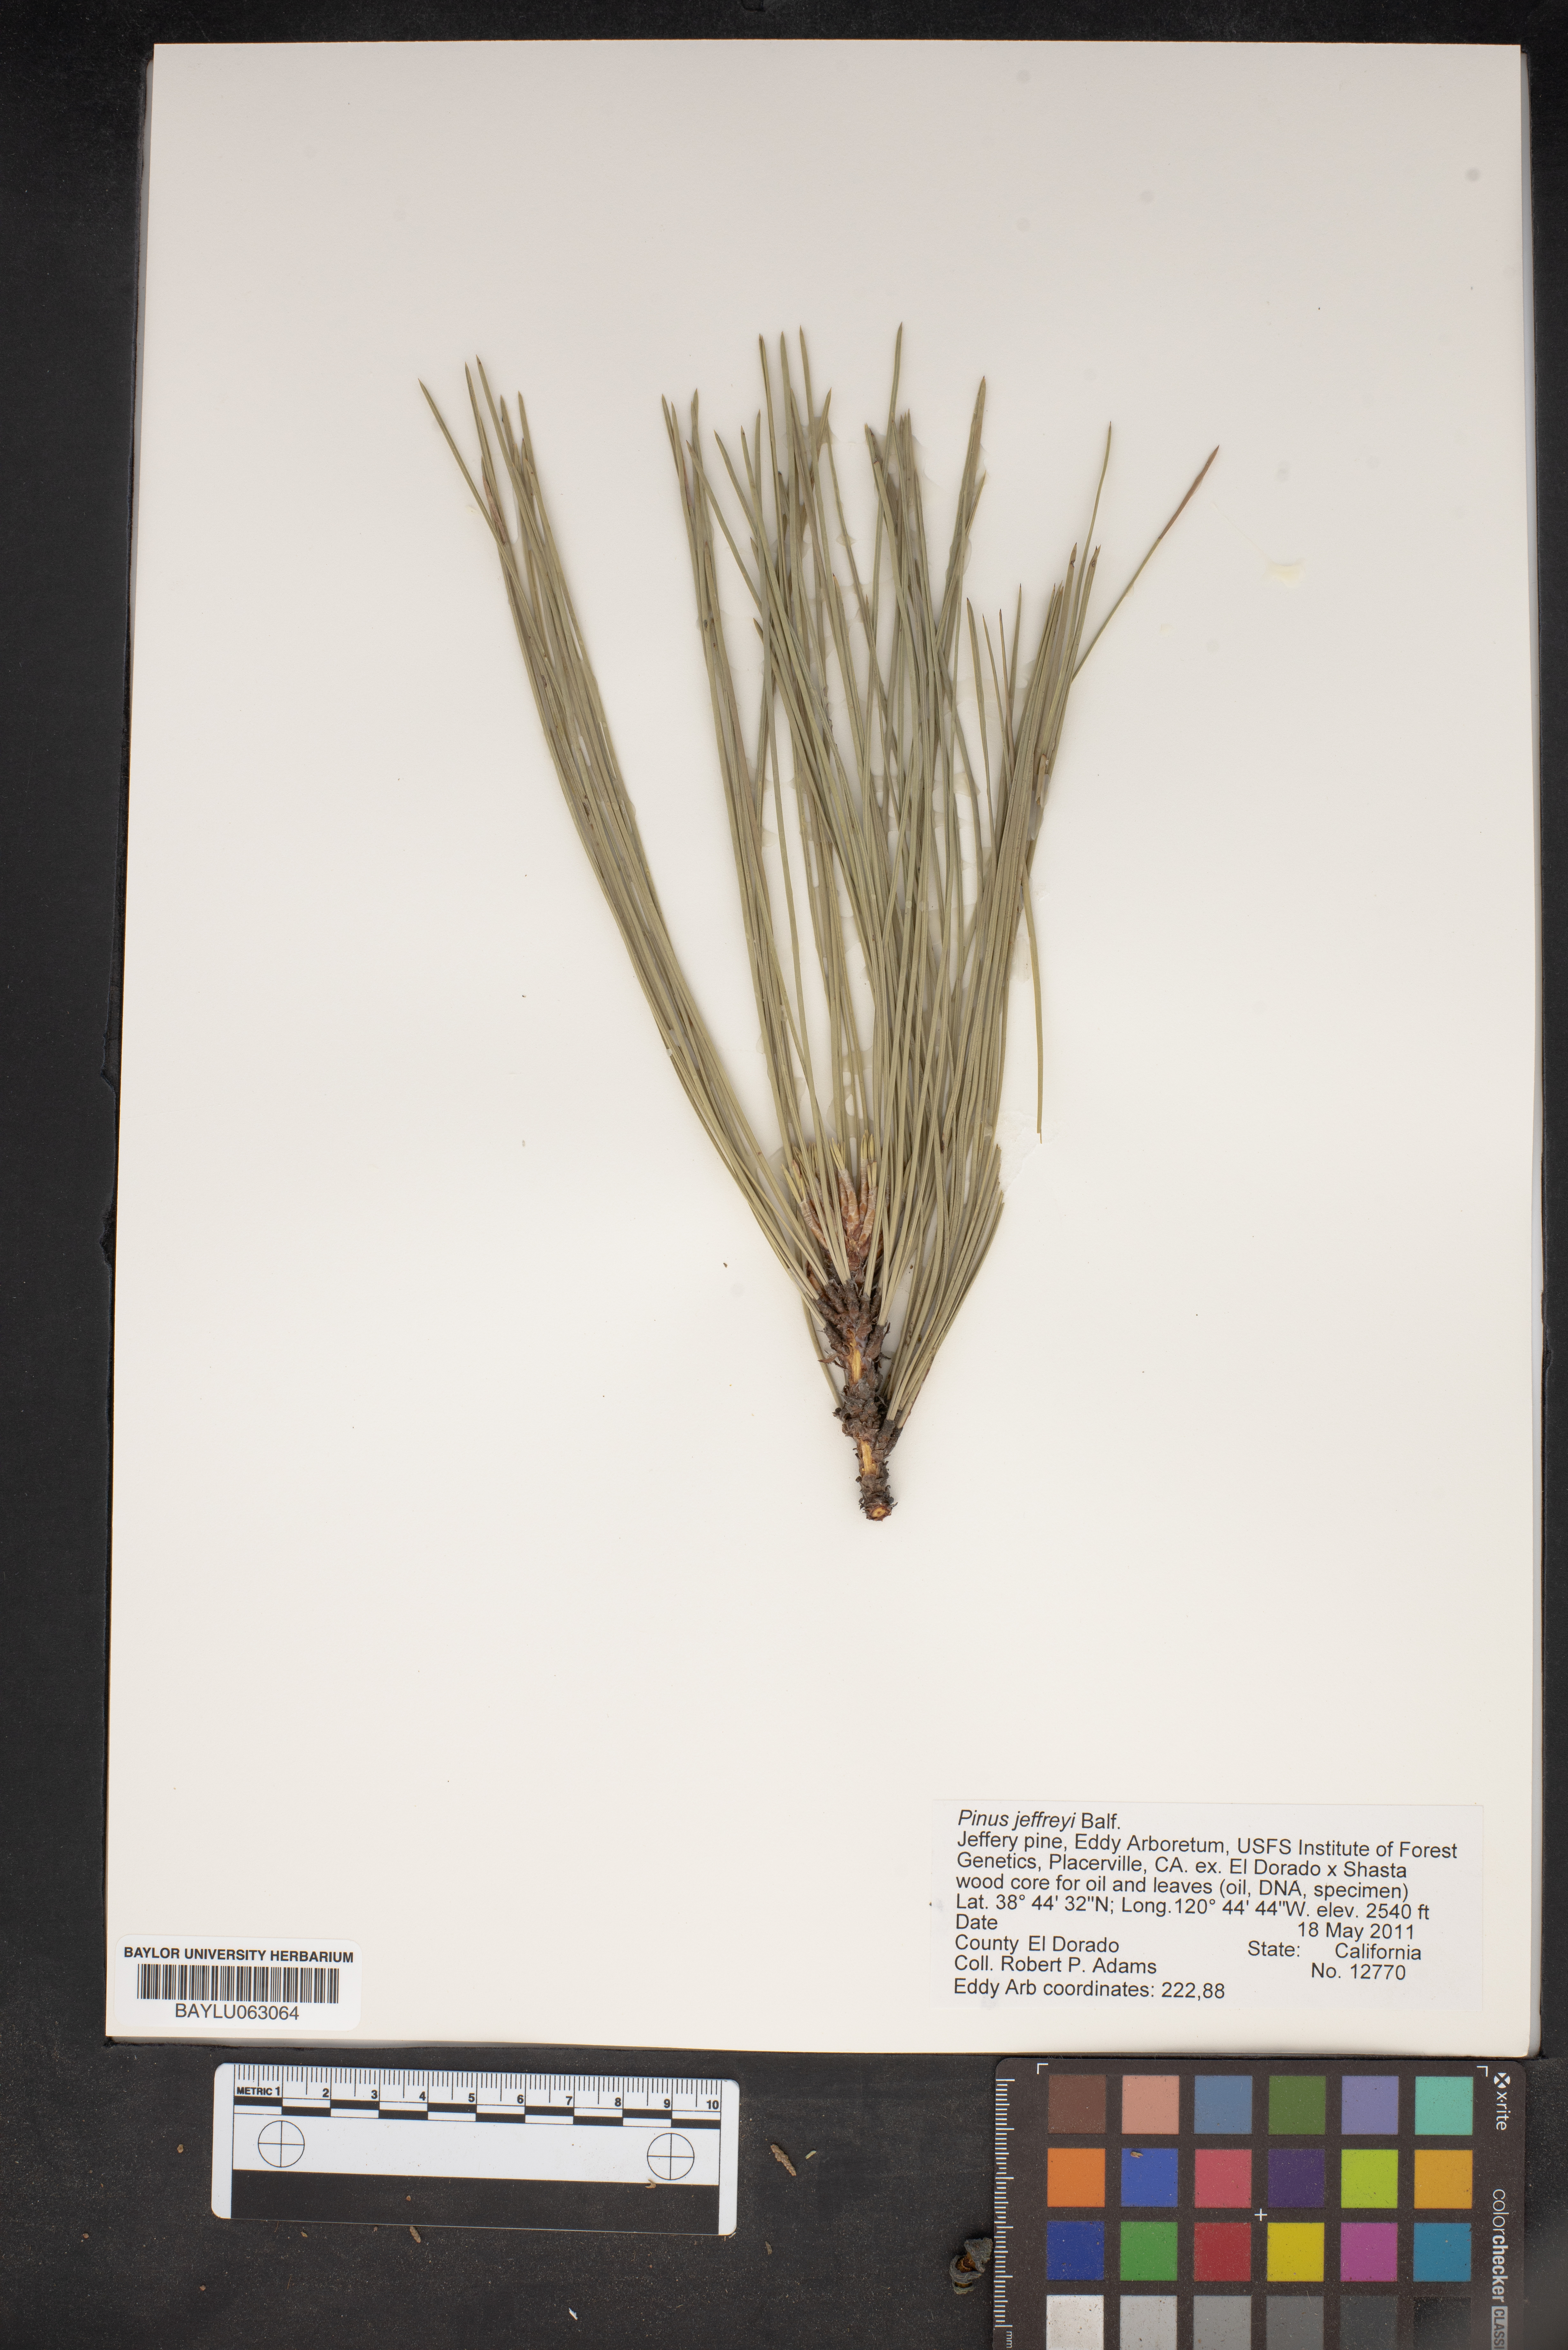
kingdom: Plantae
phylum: Tracheophyta
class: Pinopsida
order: Pinales
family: Pinaceae
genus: Pinus
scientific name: Pinus jeffreyi
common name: Jeffrey pine
